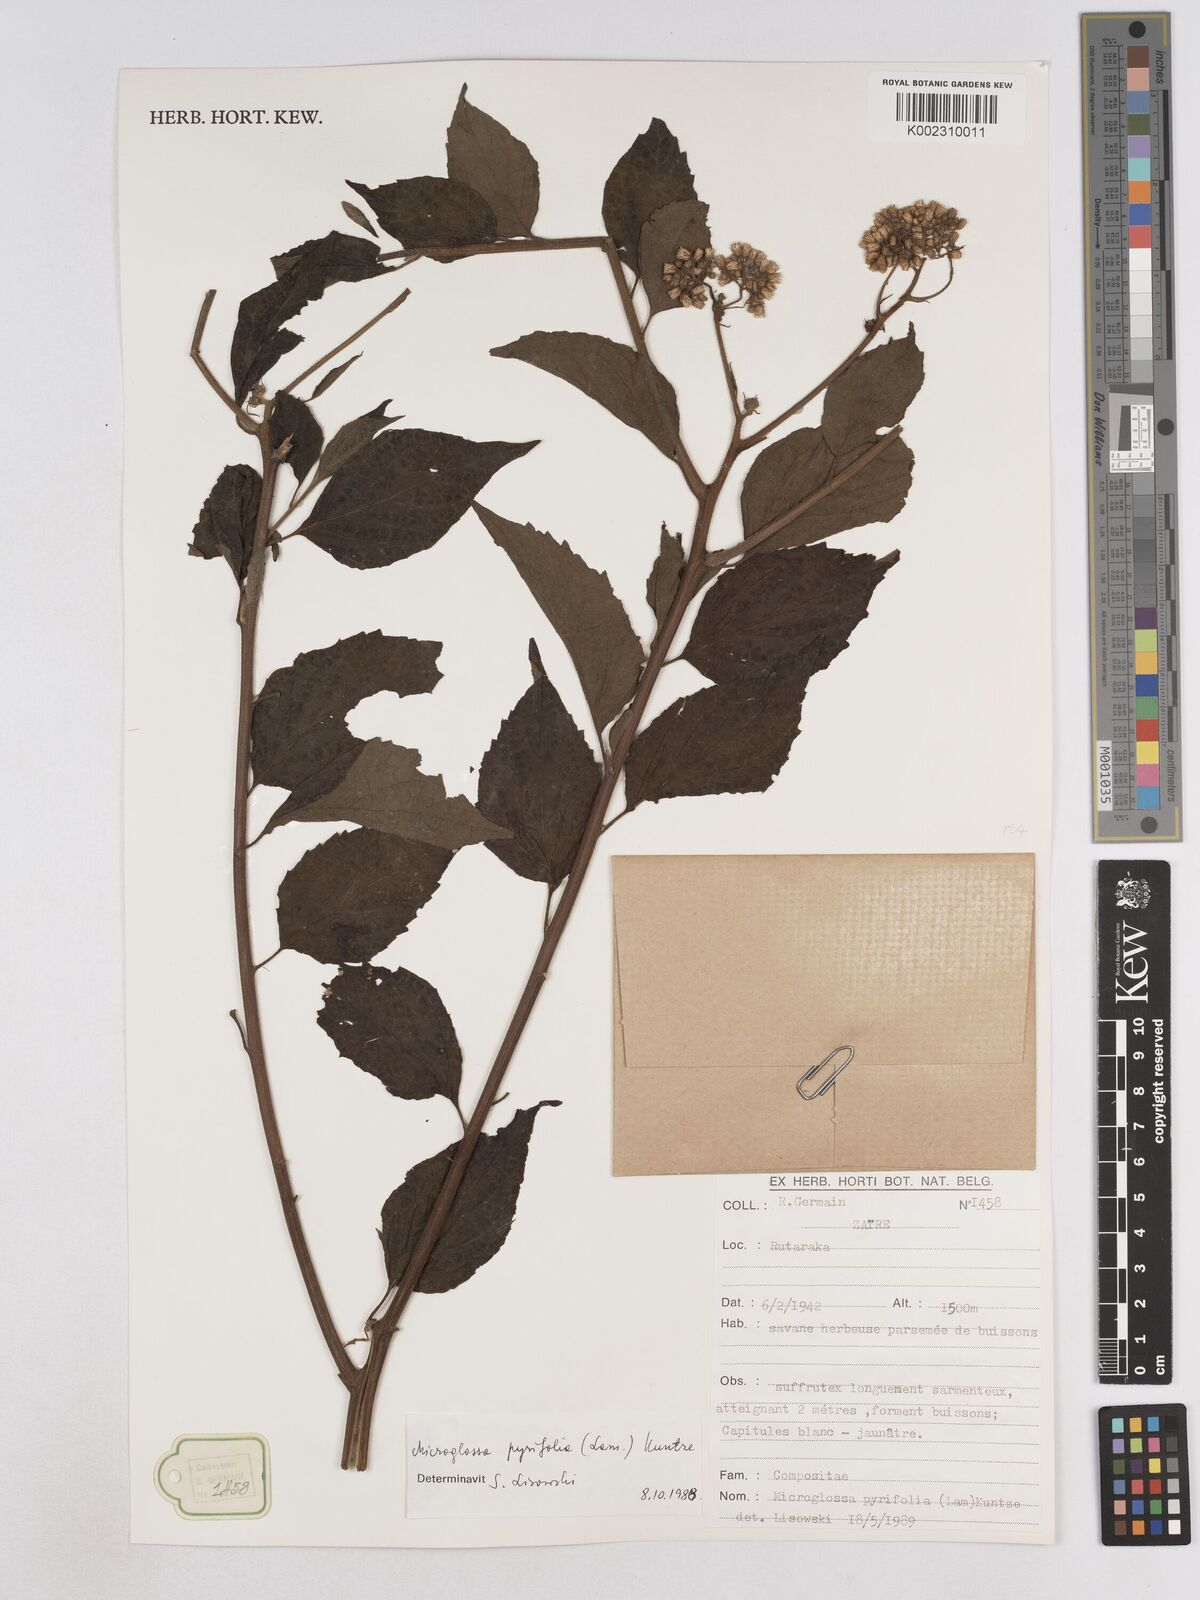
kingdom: Plantae
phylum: Tracheophyta
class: Magnoliopsida
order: Asterales
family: Asteraceae
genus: Microglossa
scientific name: Microglossa pyrifolia
